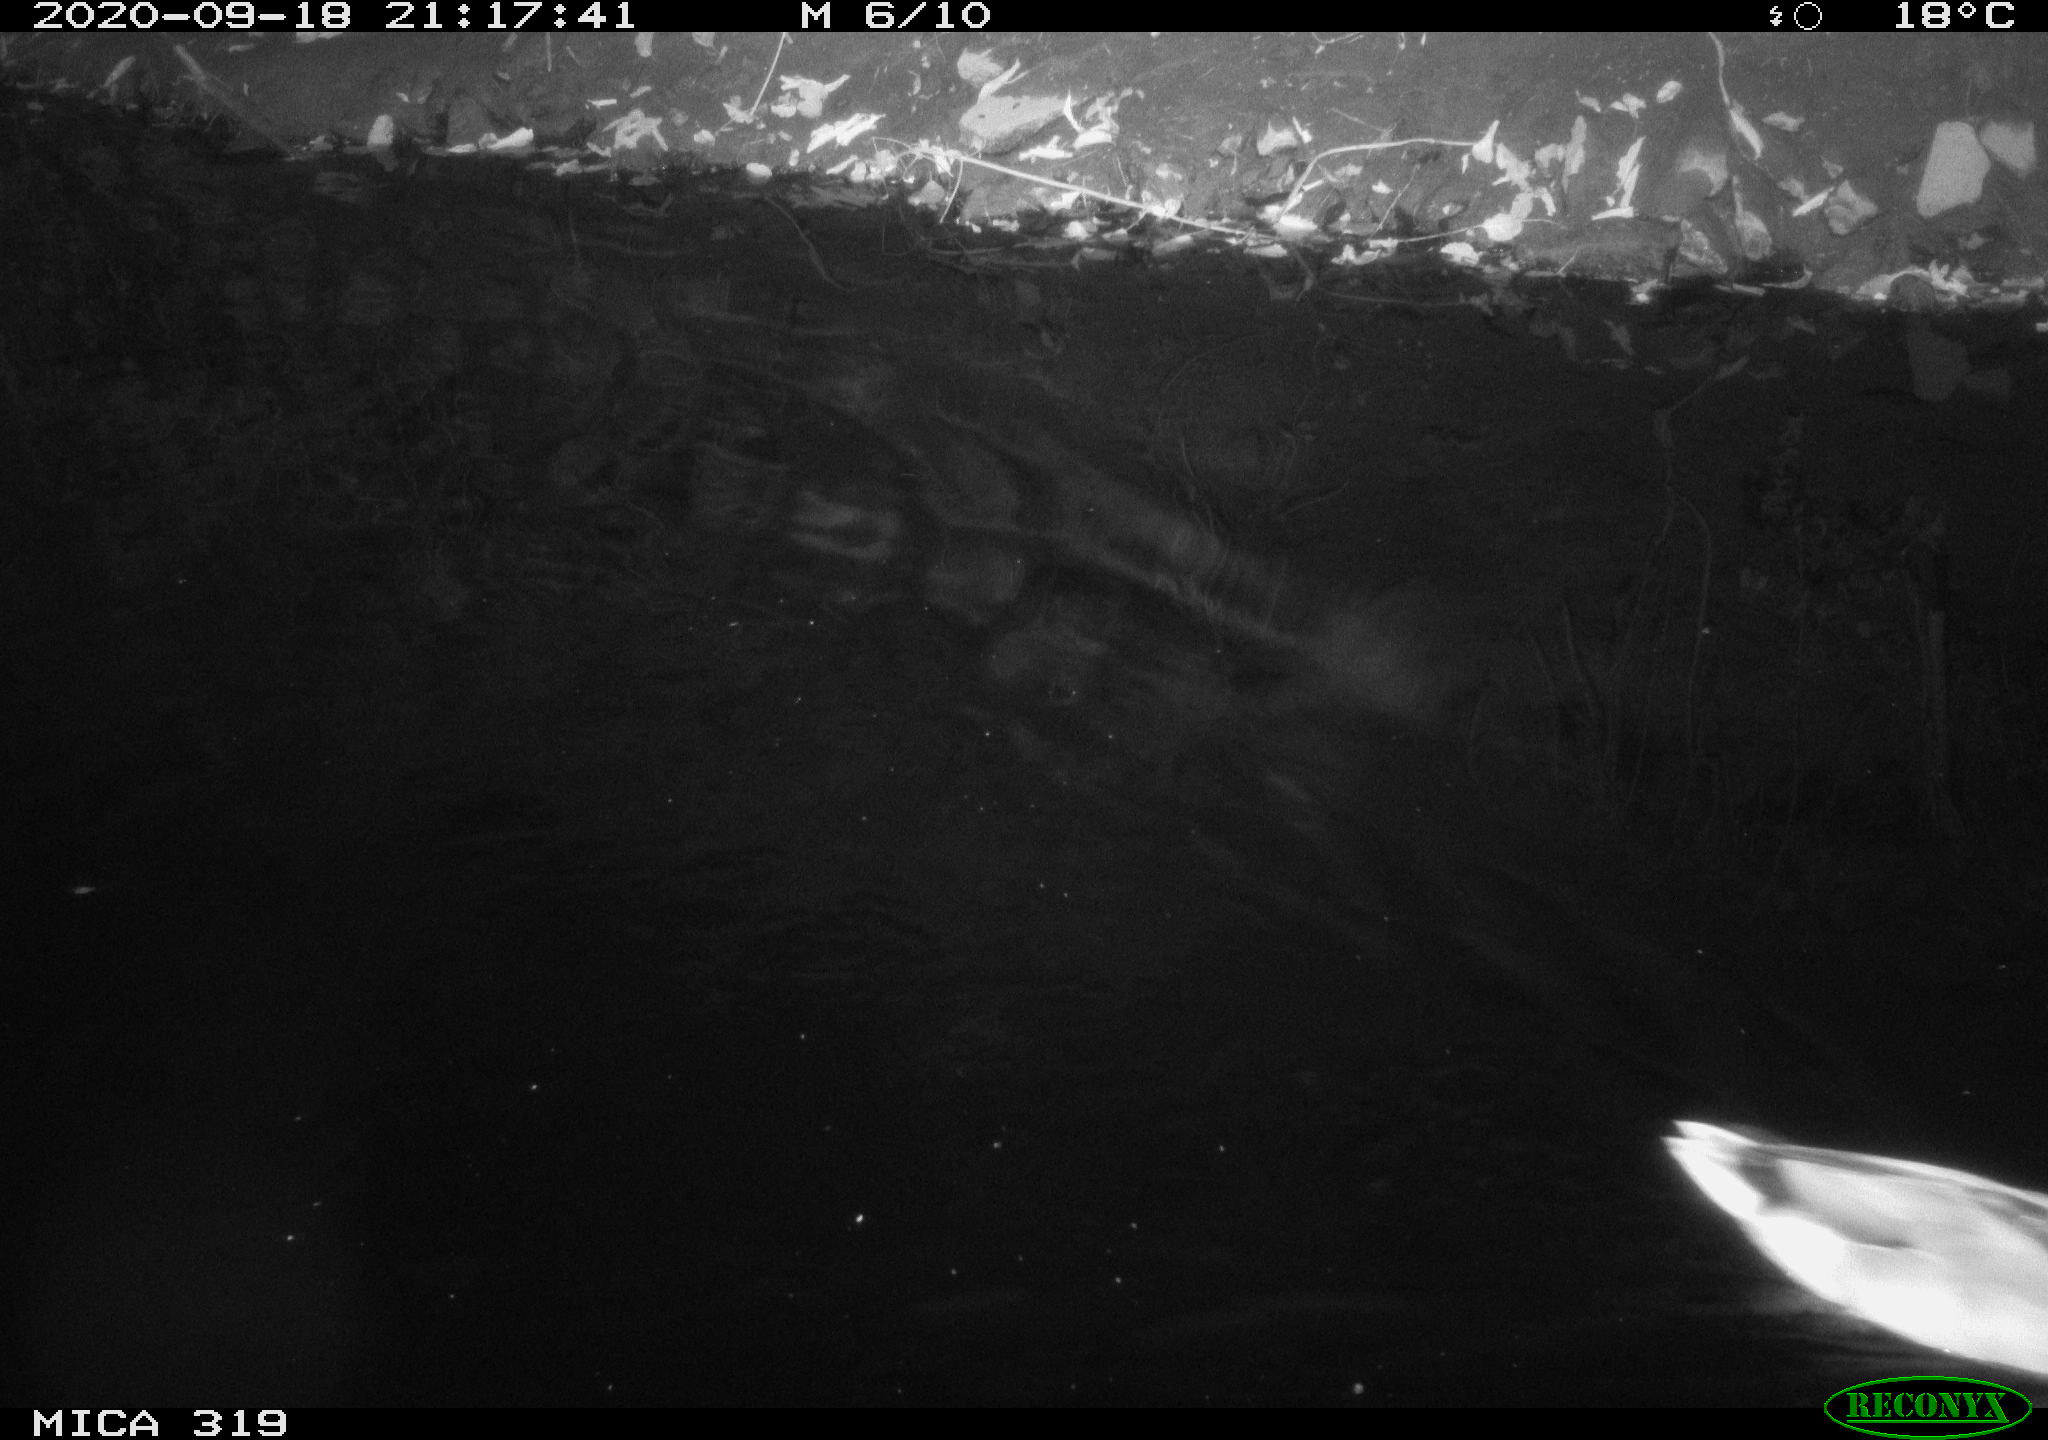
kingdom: Animalia
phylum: Chordata
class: Aves
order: Anseriformes
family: Anatidae
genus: Anas
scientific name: Anas platyrhynchos
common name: Mallard
